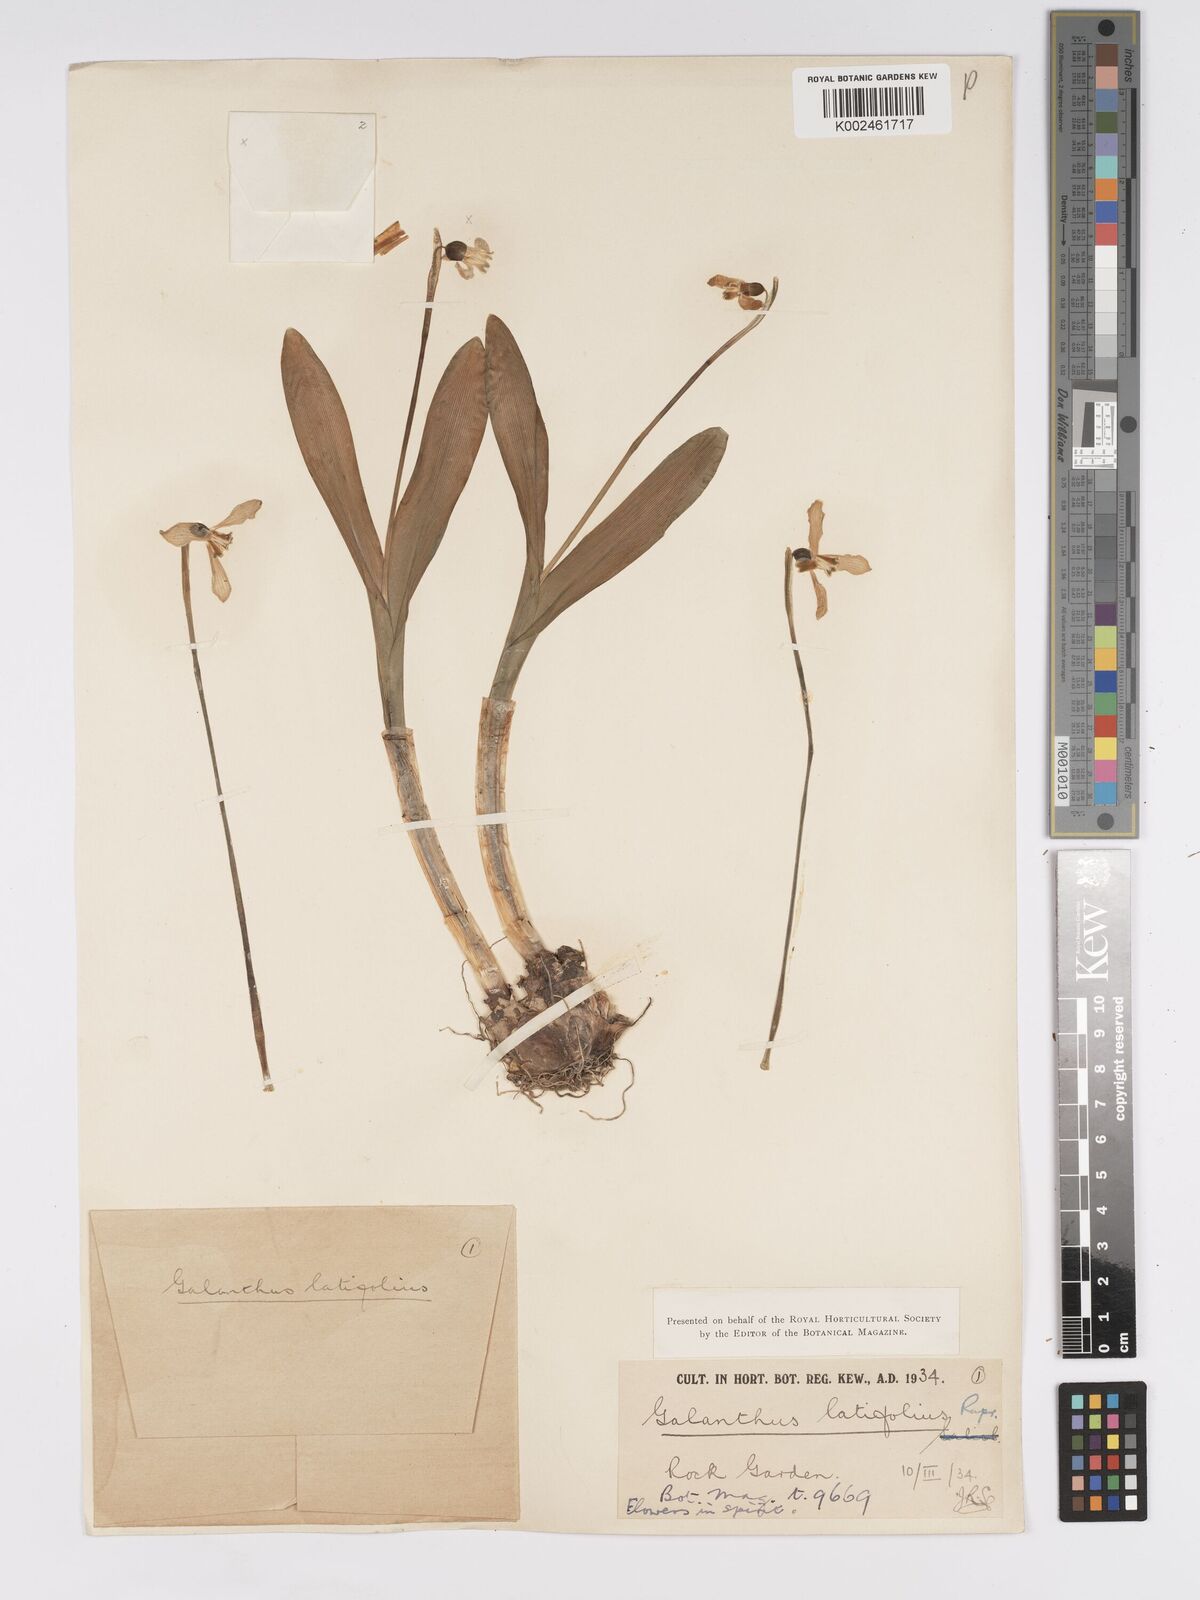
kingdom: Plantae
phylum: Tracheophyta
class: Liliopsida
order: Asparagales
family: Amaryllidaceae
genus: Galanthus
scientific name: Galanthus platyphyllus
